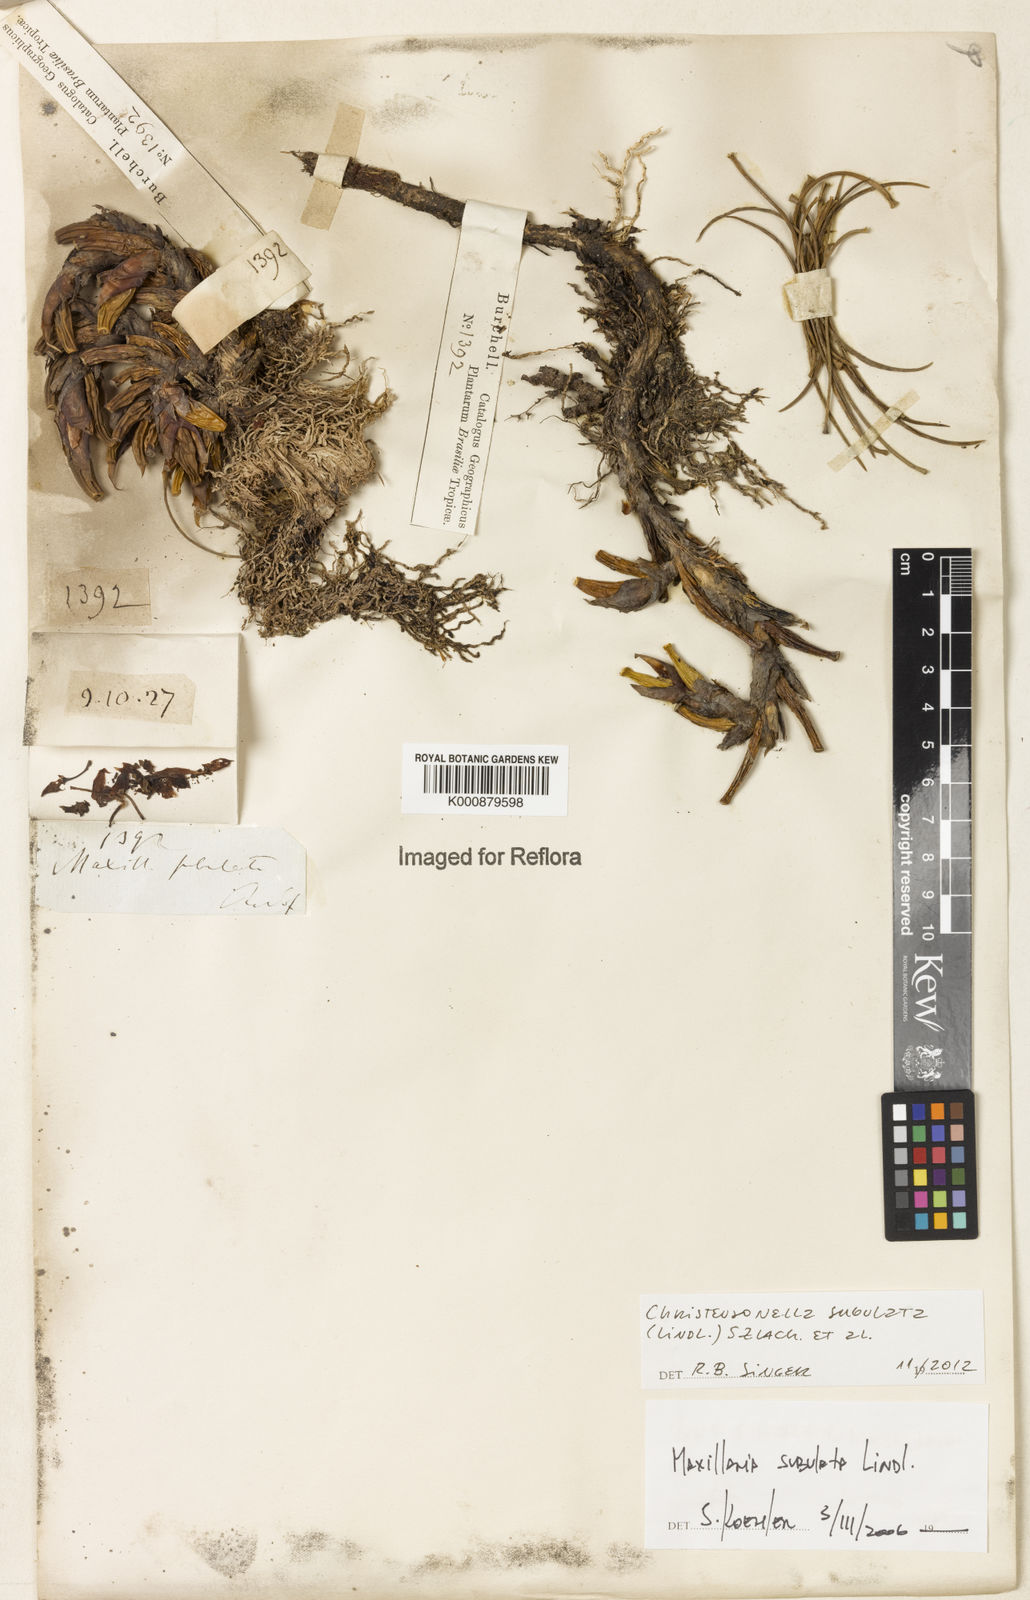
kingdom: Plantae
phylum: Tracheophyta
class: Liliopsida
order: Asparagales
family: Orchidaceae
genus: Maxillaria
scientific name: Maxillaria subulata
